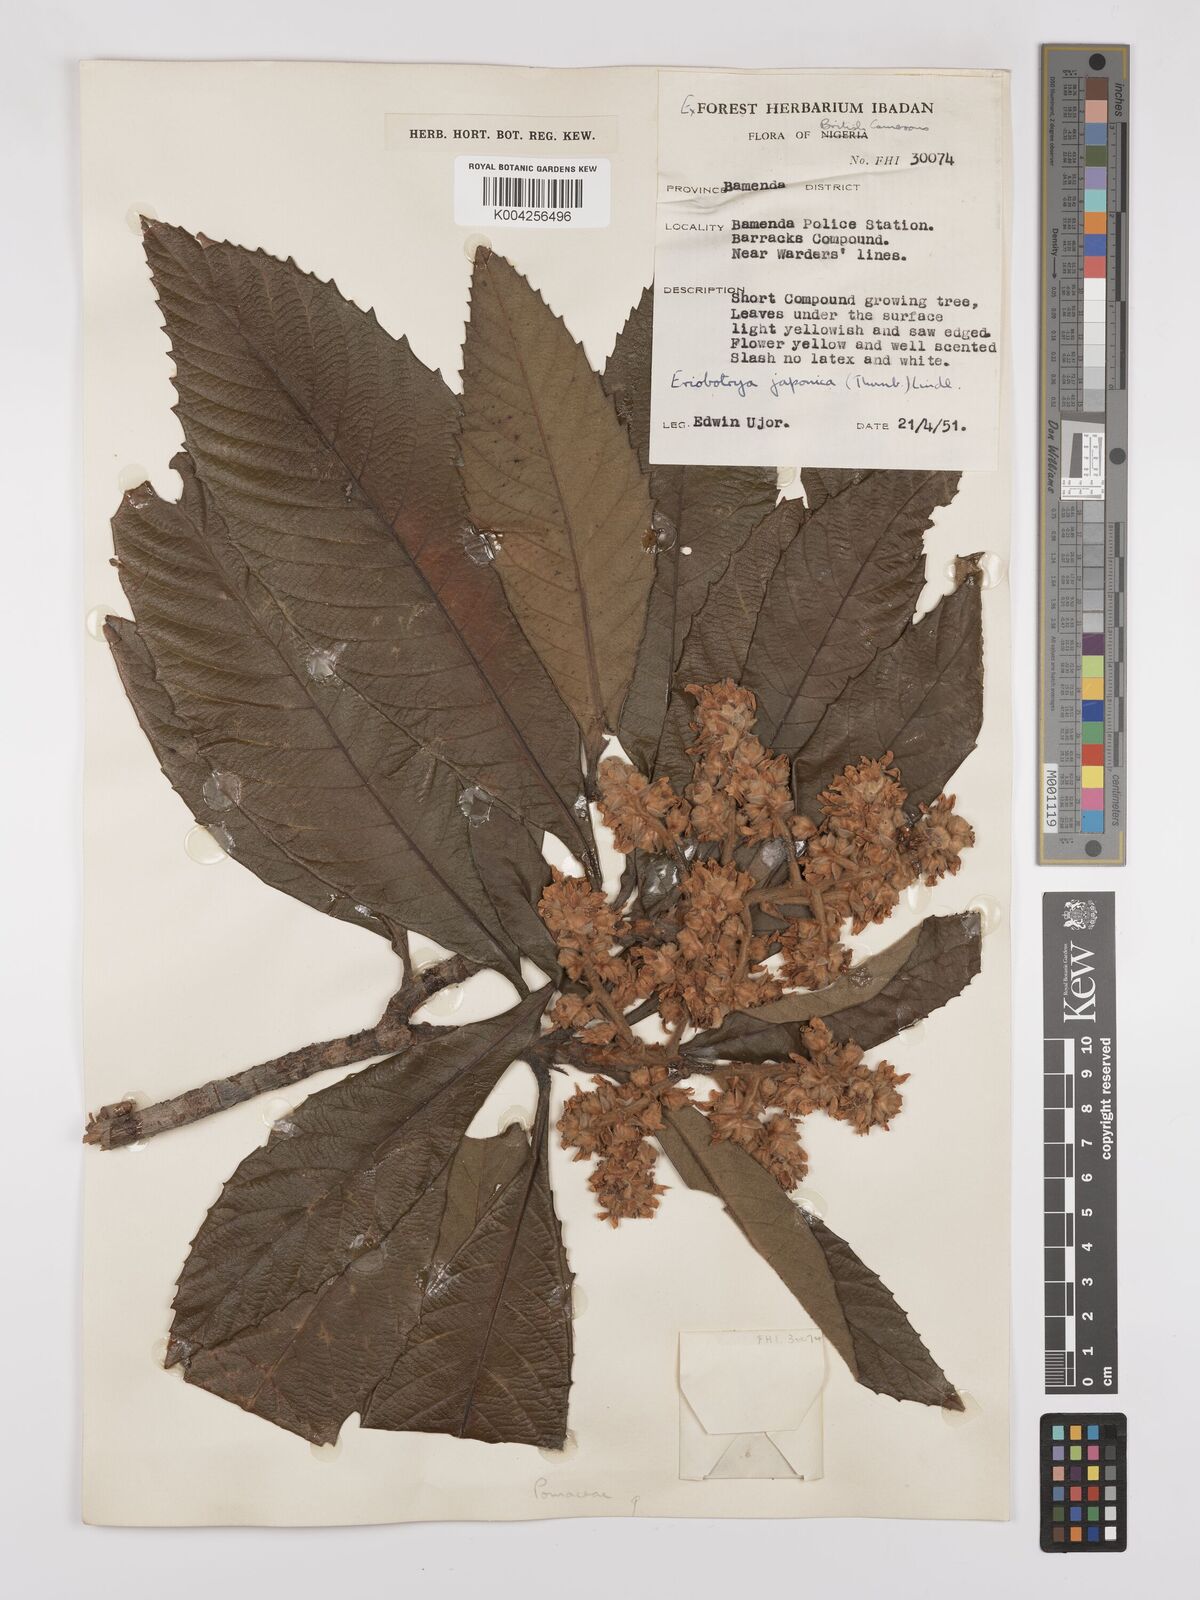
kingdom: Plantae
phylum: Tracheophyta
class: Magnoliopsida
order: Rosales
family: Rosaceae
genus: Rhaphiolepis
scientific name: Rhaphiolepis bibas
